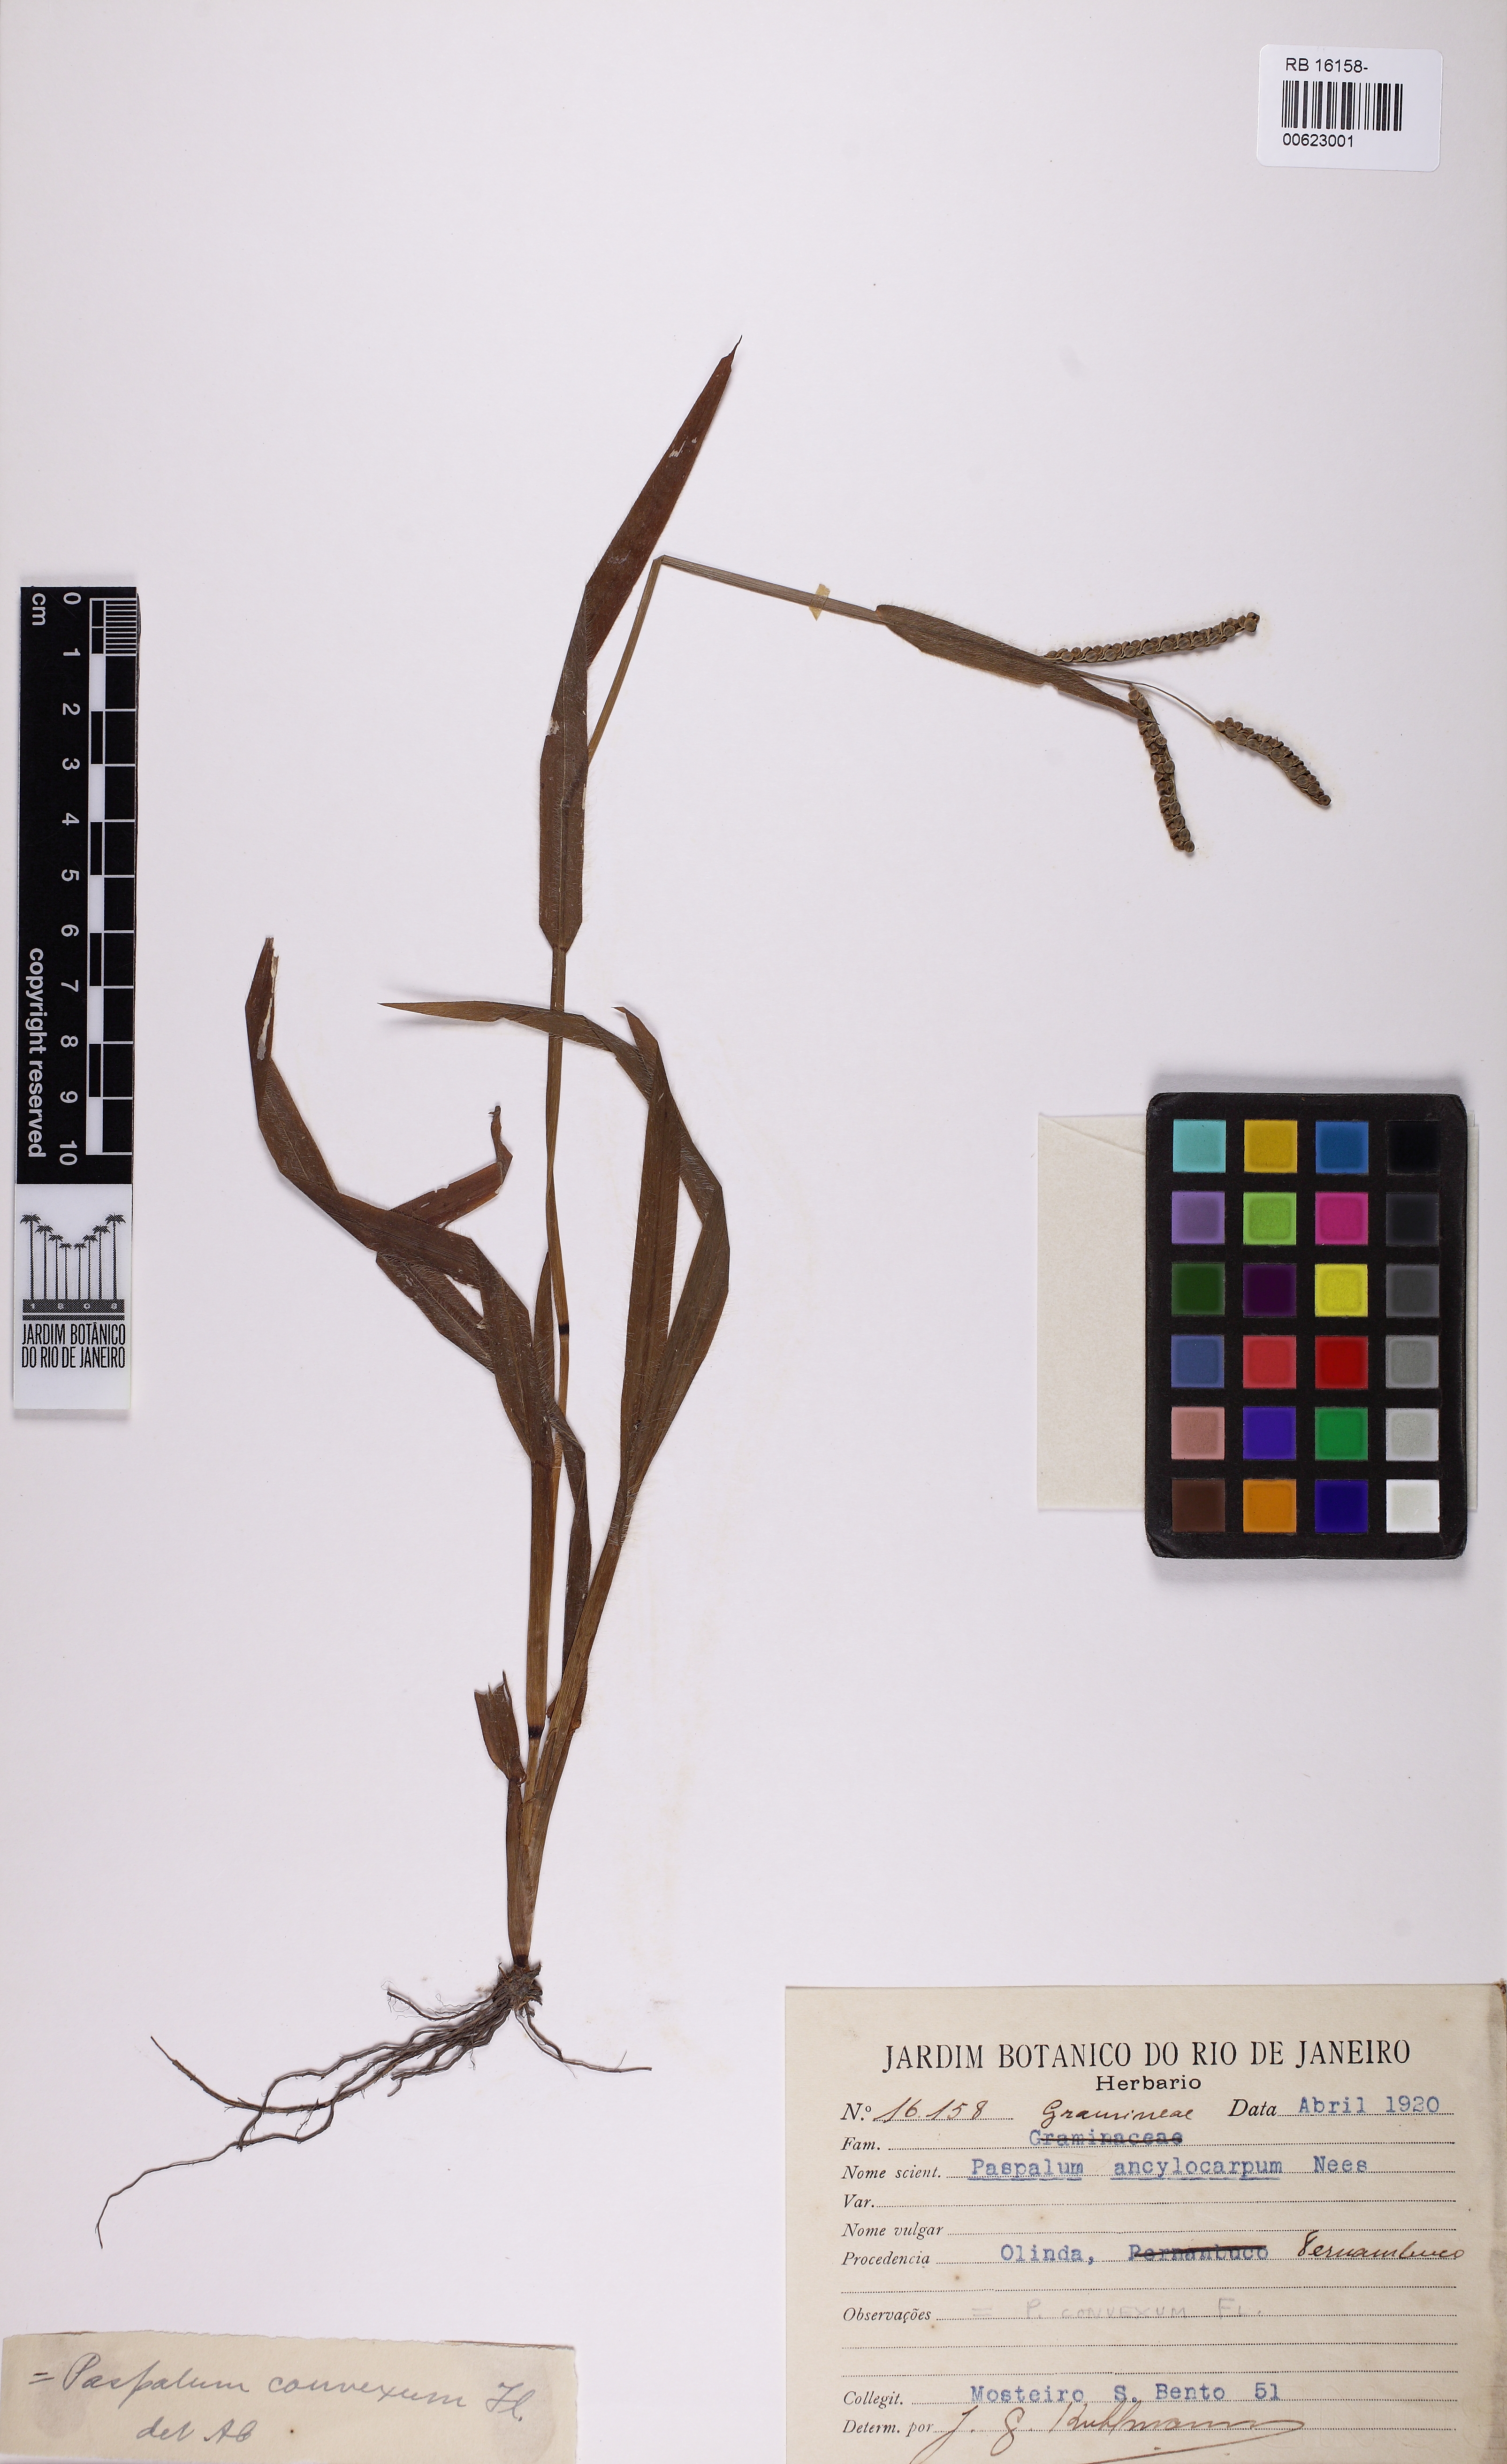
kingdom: Plantae
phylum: Tracheophyta
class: Liliopsida
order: Poales
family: Poaceae
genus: Paspalum
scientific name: Paspalum convexum
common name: Latin american crowngrass
